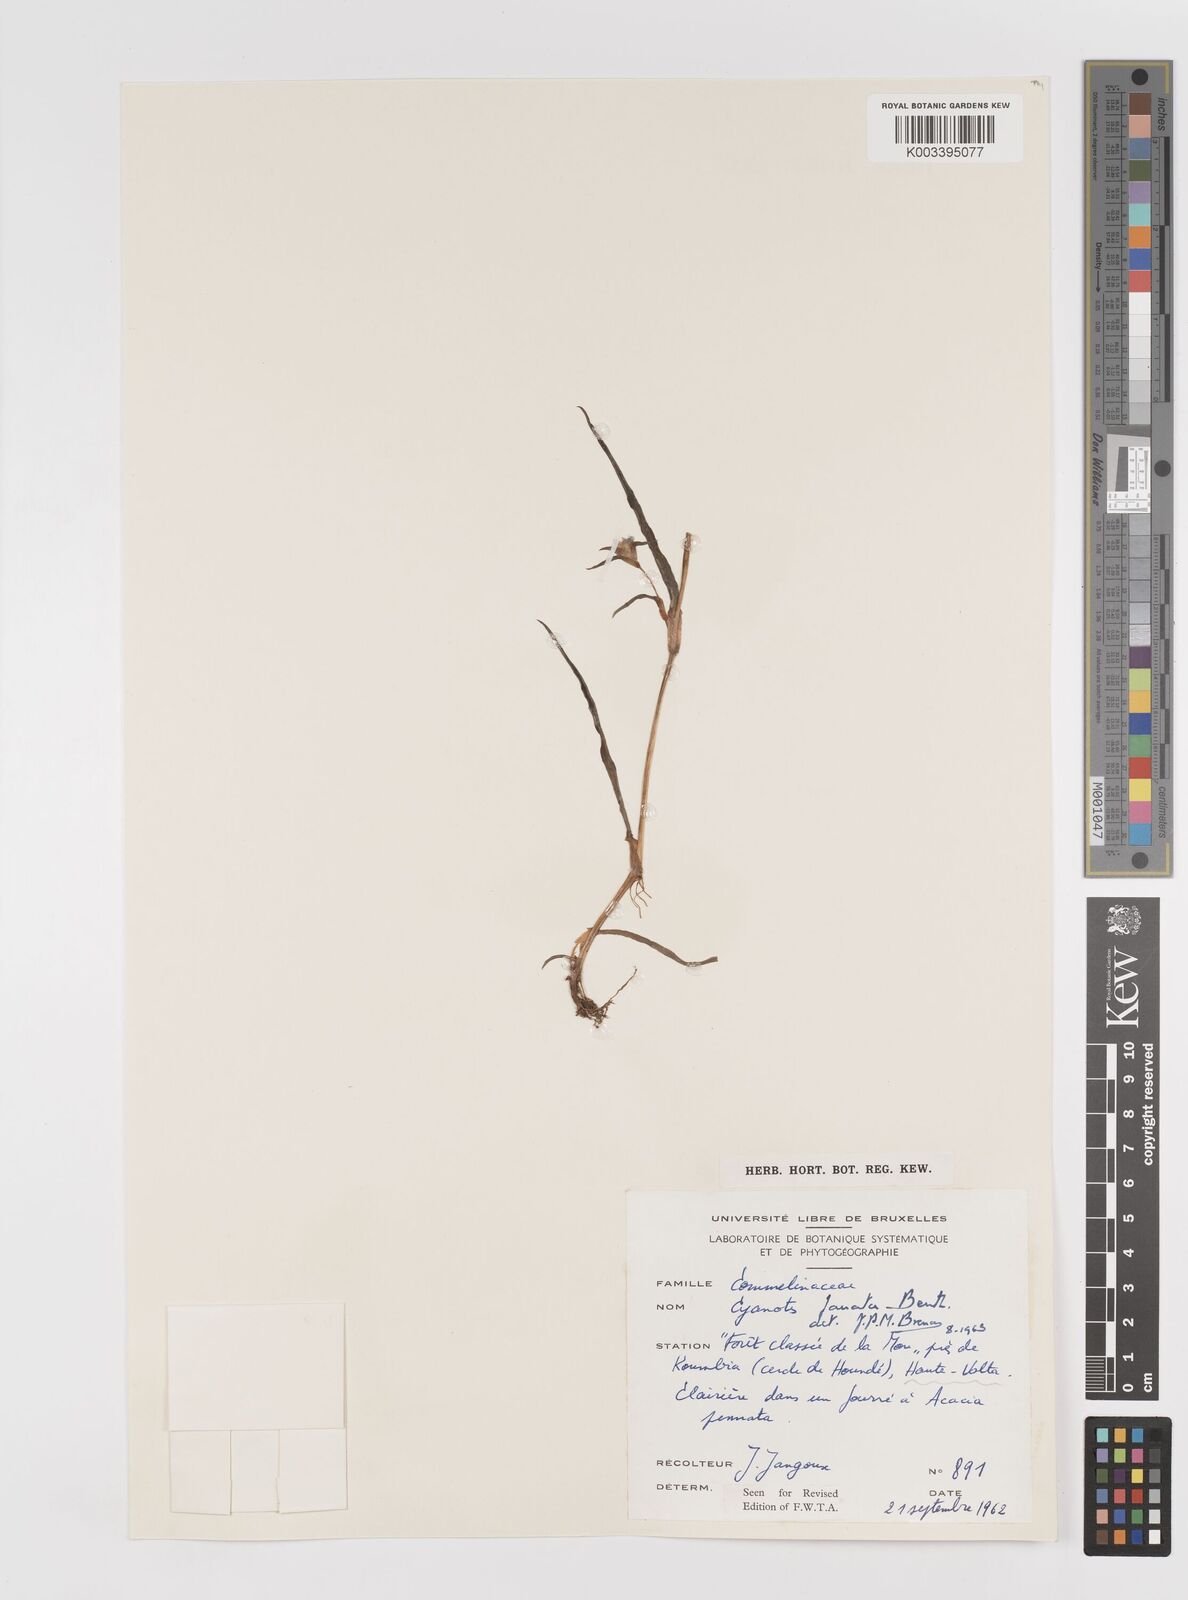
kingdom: Plantae
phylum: Tracheophyta
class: Liliopsida
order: Commelinales
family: Commelinaceae
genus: Cyanotis
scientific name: Cyanotis lanata
